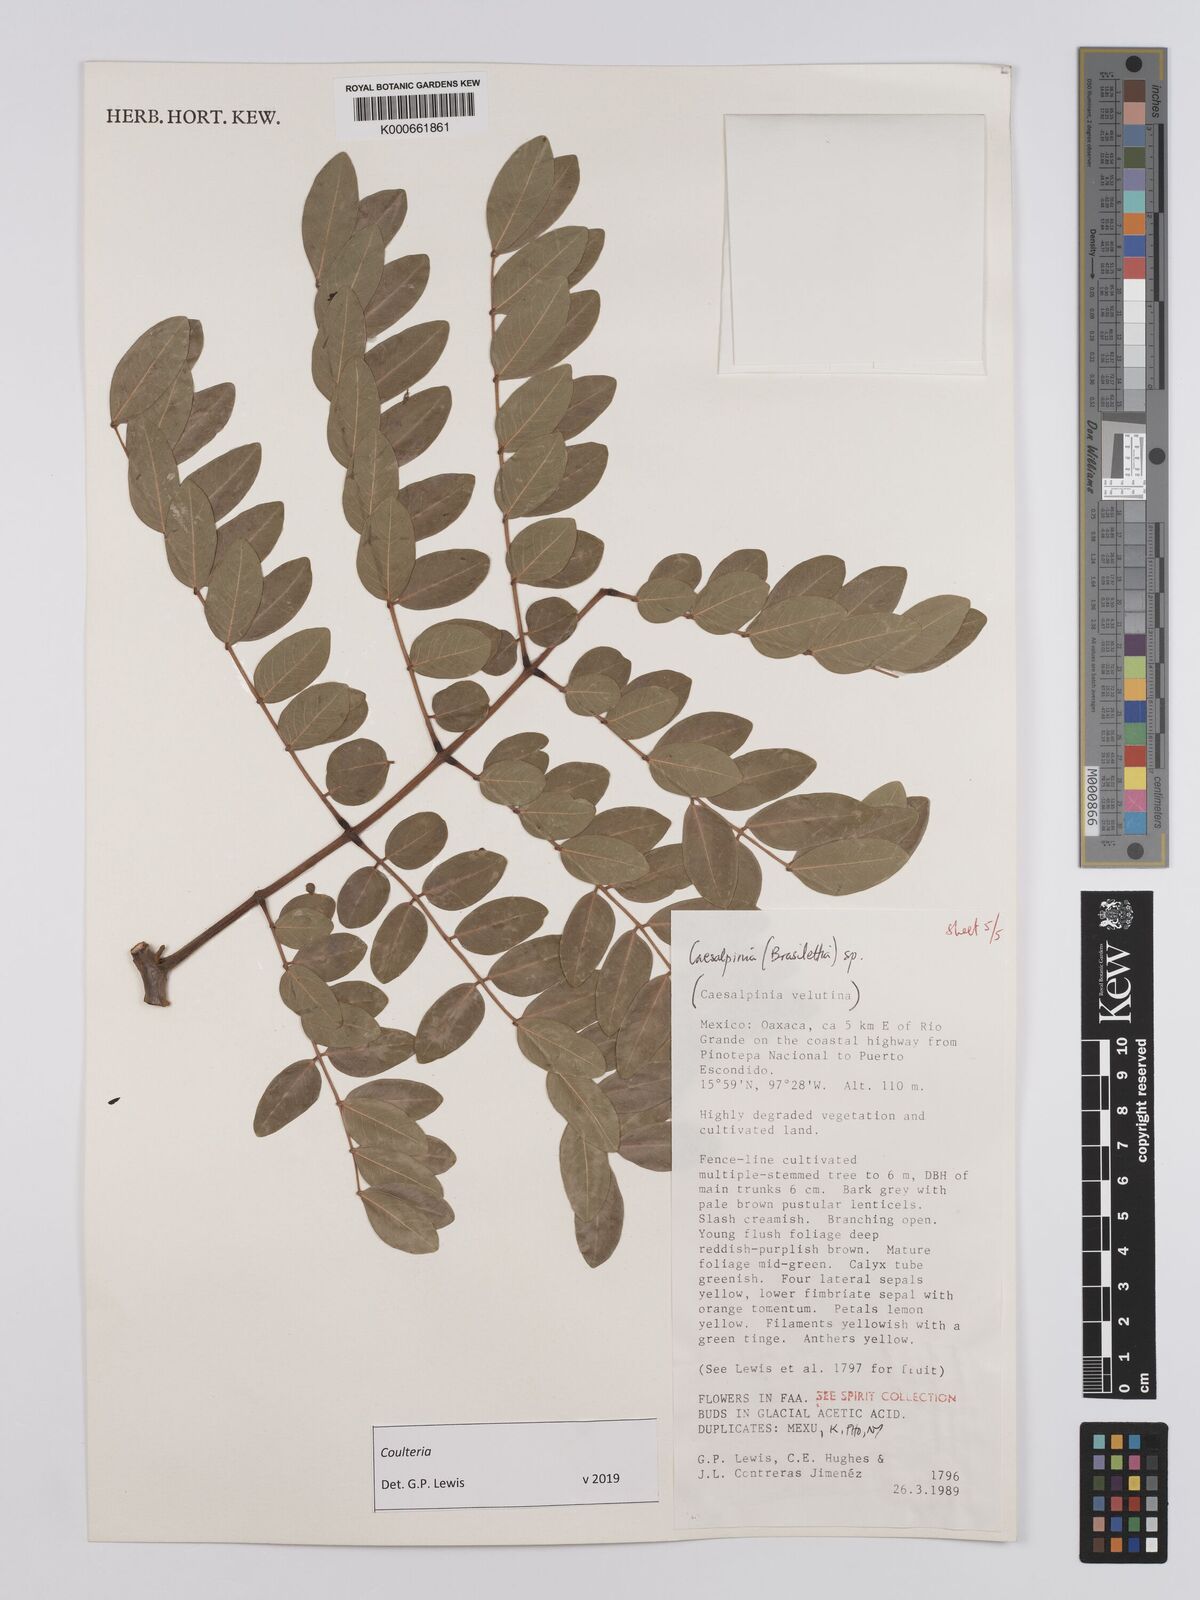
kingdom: Plantae
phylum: Tracheophyta
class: Magnoliopsida
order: Fabales
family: Fabaceae
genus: Coulteria
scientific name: Coulteria
